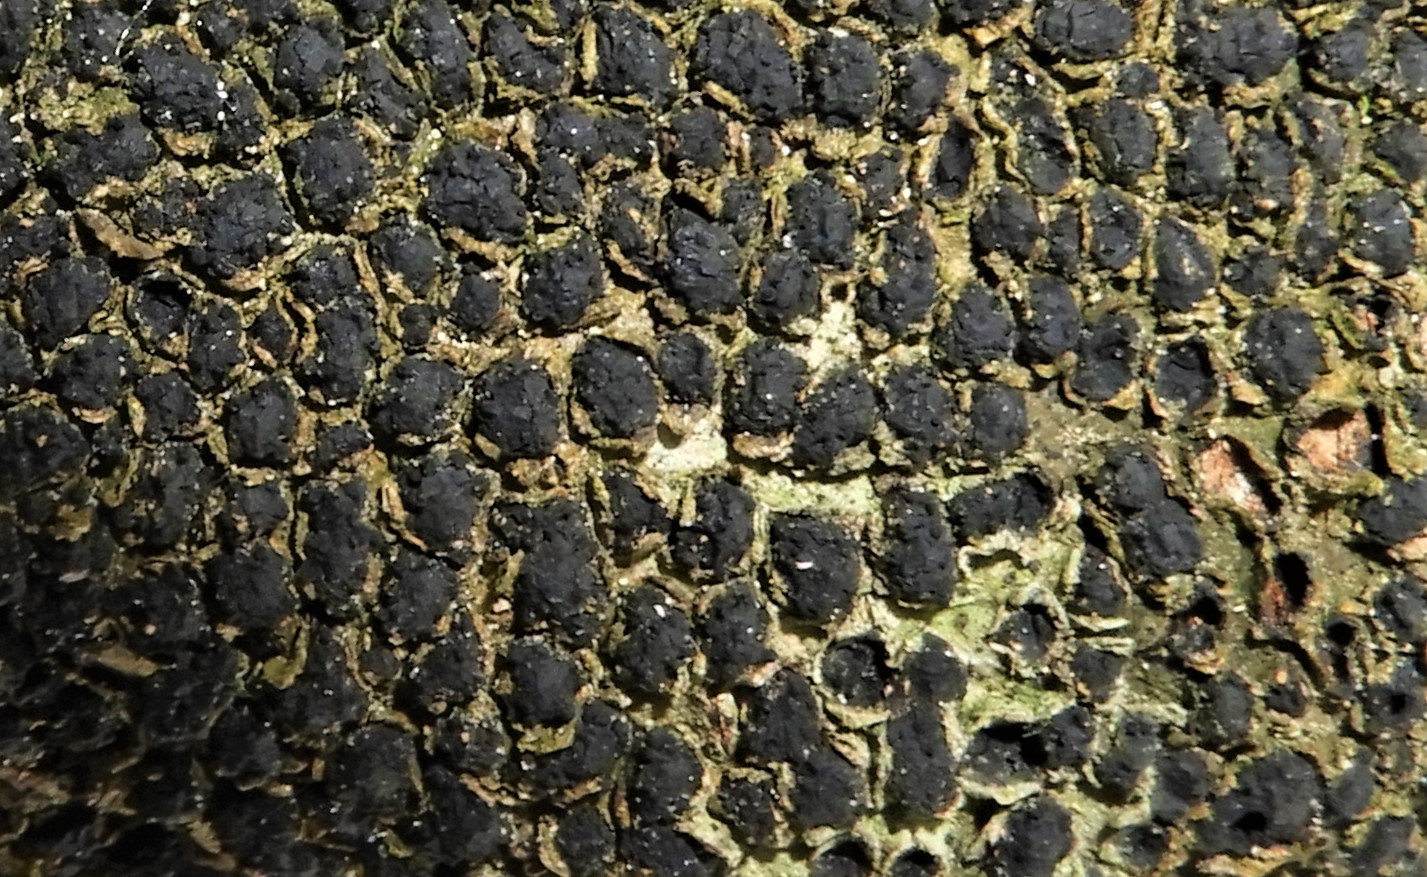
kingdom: Fungi
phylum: Ascomycota
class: Sordariomycetes
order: Xylariales
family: Melogrammataceae
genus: Melogramma
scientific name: Melogramma spiniferum
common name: bøgefod-kulhals
